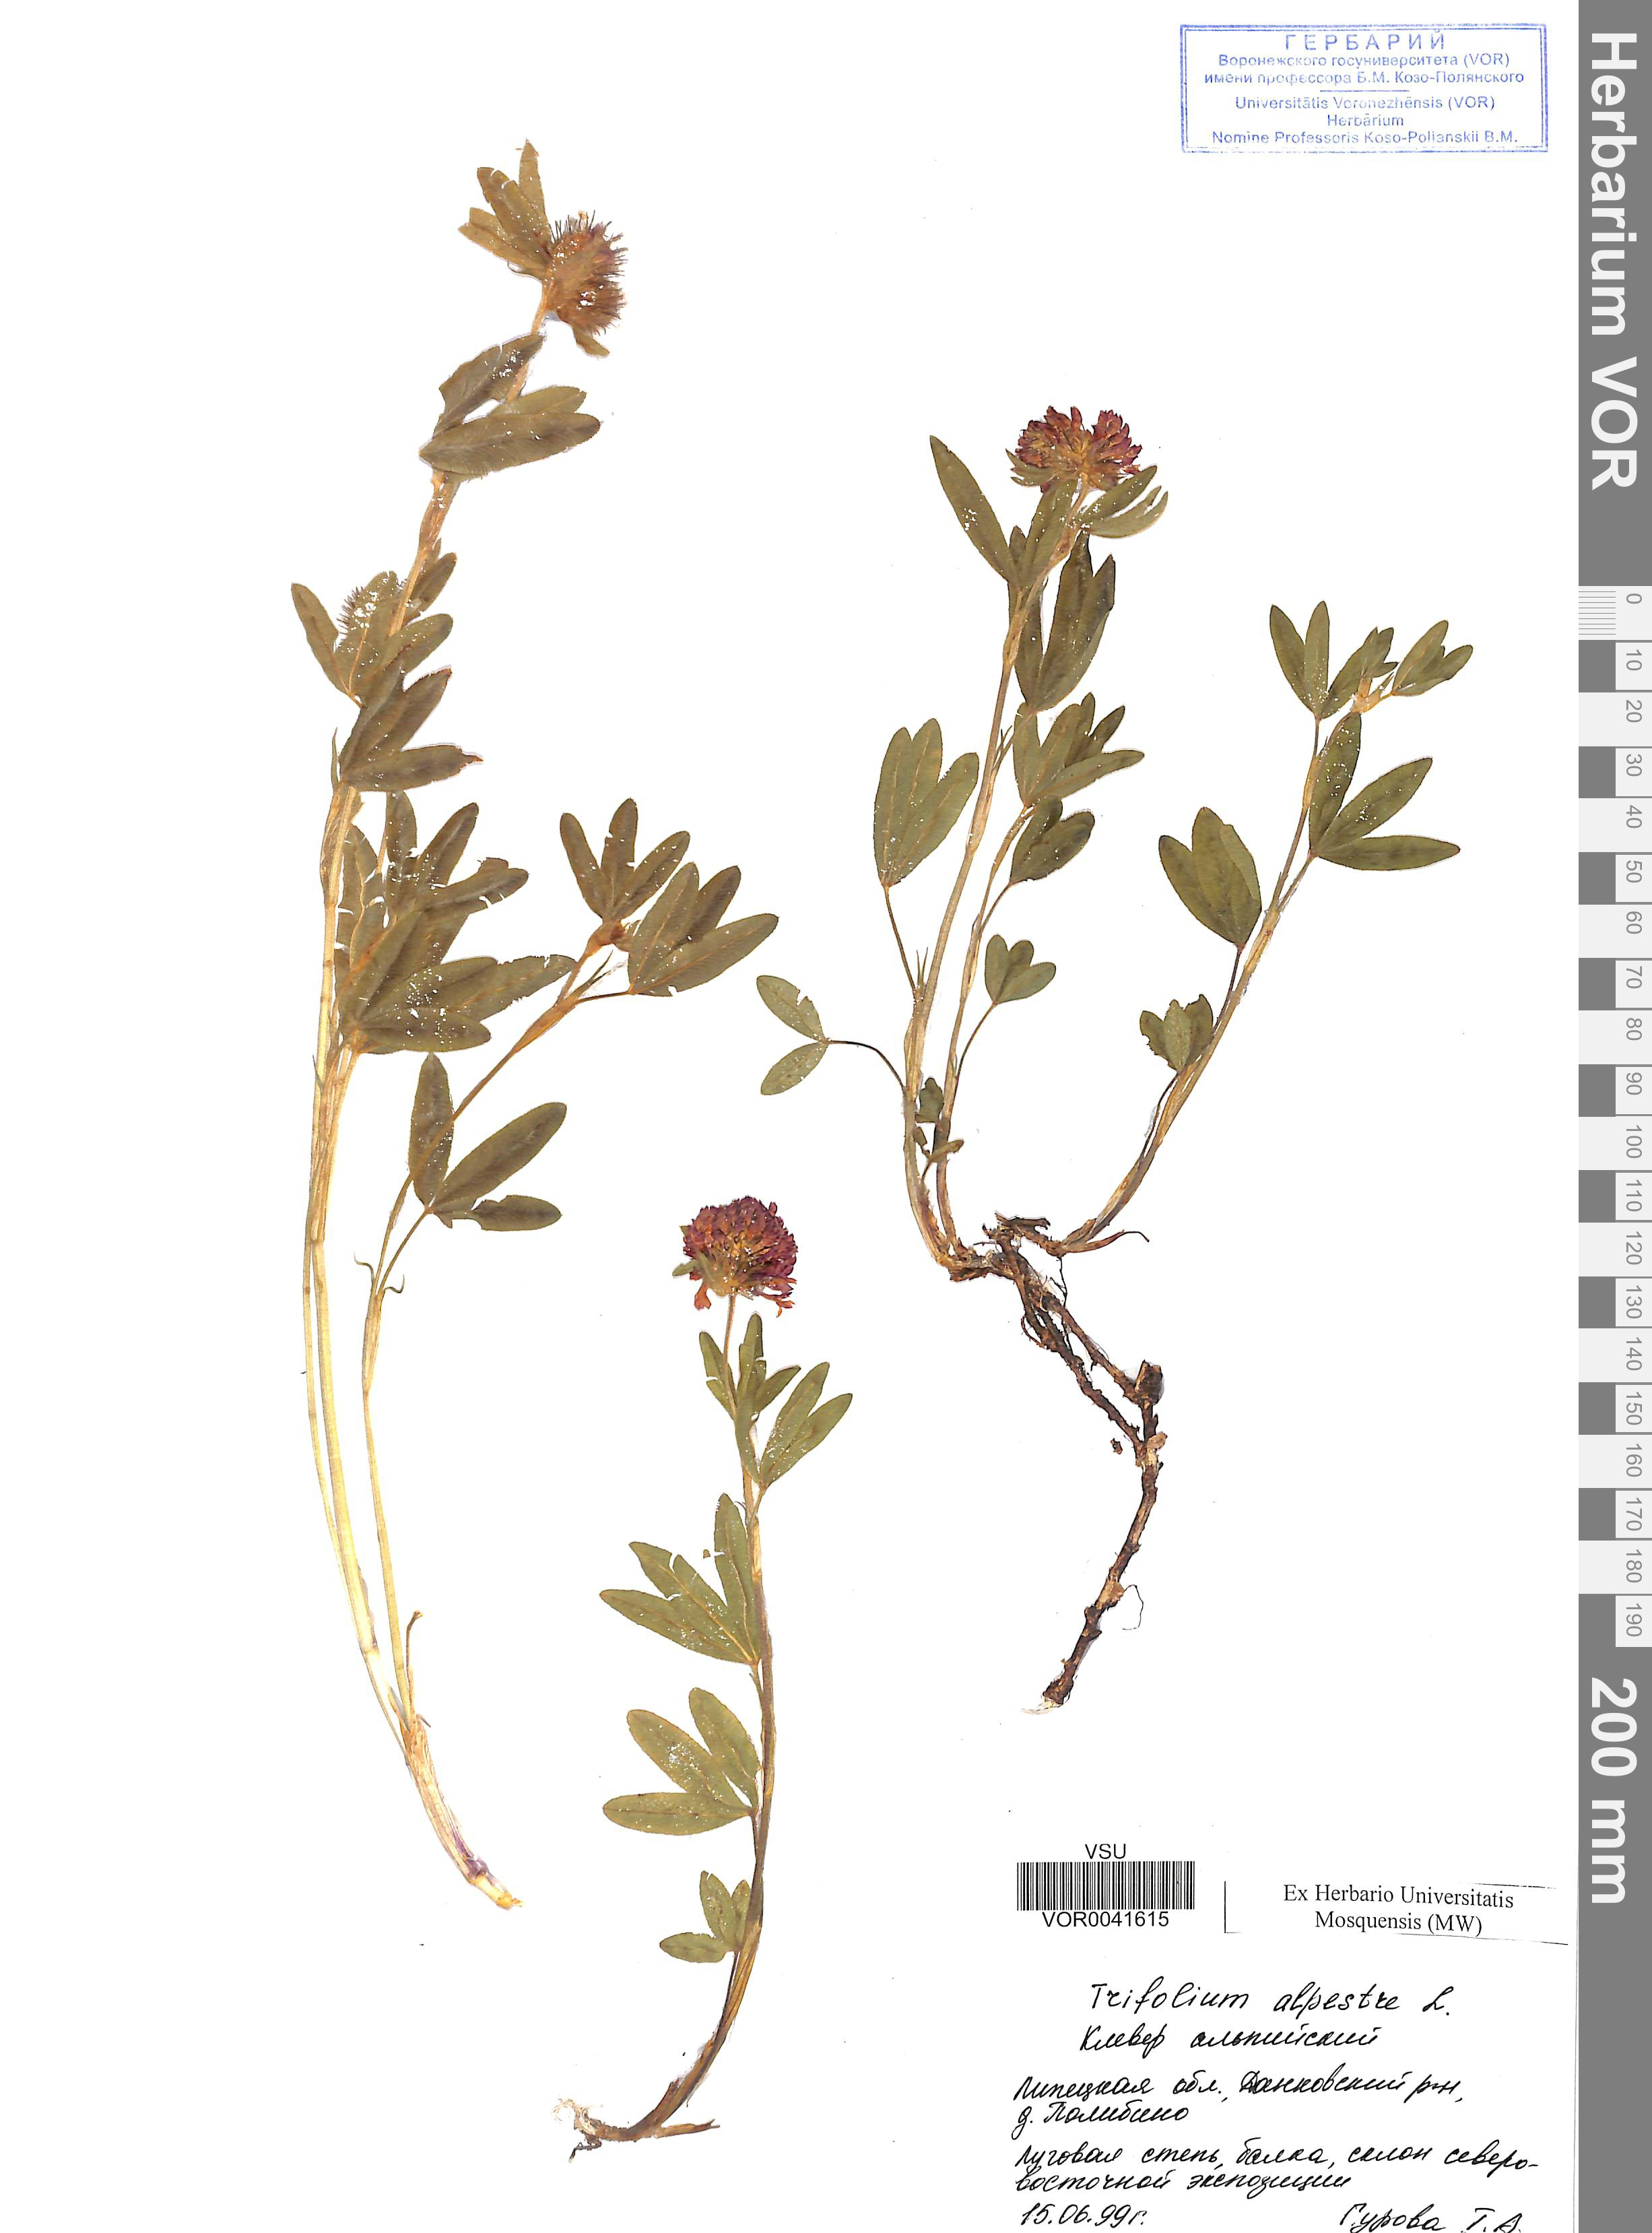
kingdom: Plantae
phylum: Tracheophyta
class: Magnoliopsida
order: Fabales
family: Fabaceae
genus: Trifolium
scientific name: Trifolium alpestre
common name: Owl-head clover
